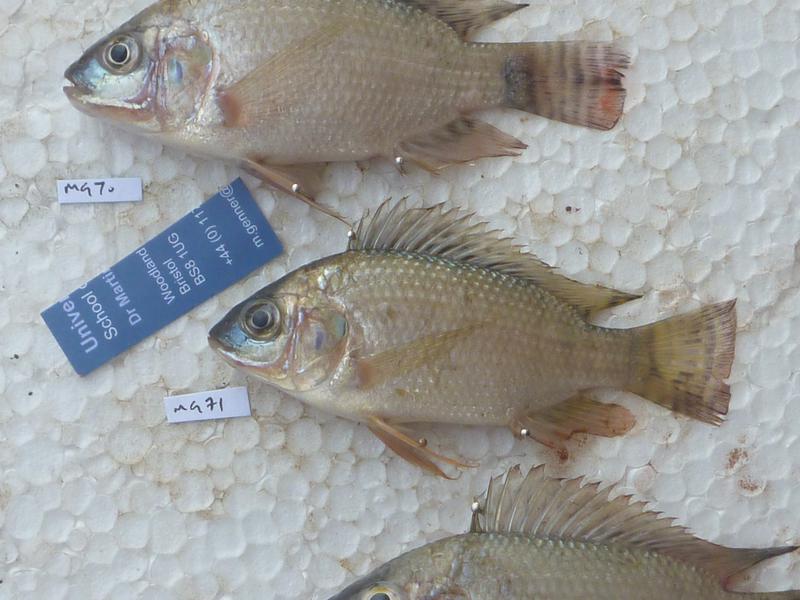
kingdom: Animalia
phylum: Chordata
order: Perciformes
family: Cichlidae
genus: Oreochromis
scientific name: Oreochromis niloticus
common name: Nile tilapia
